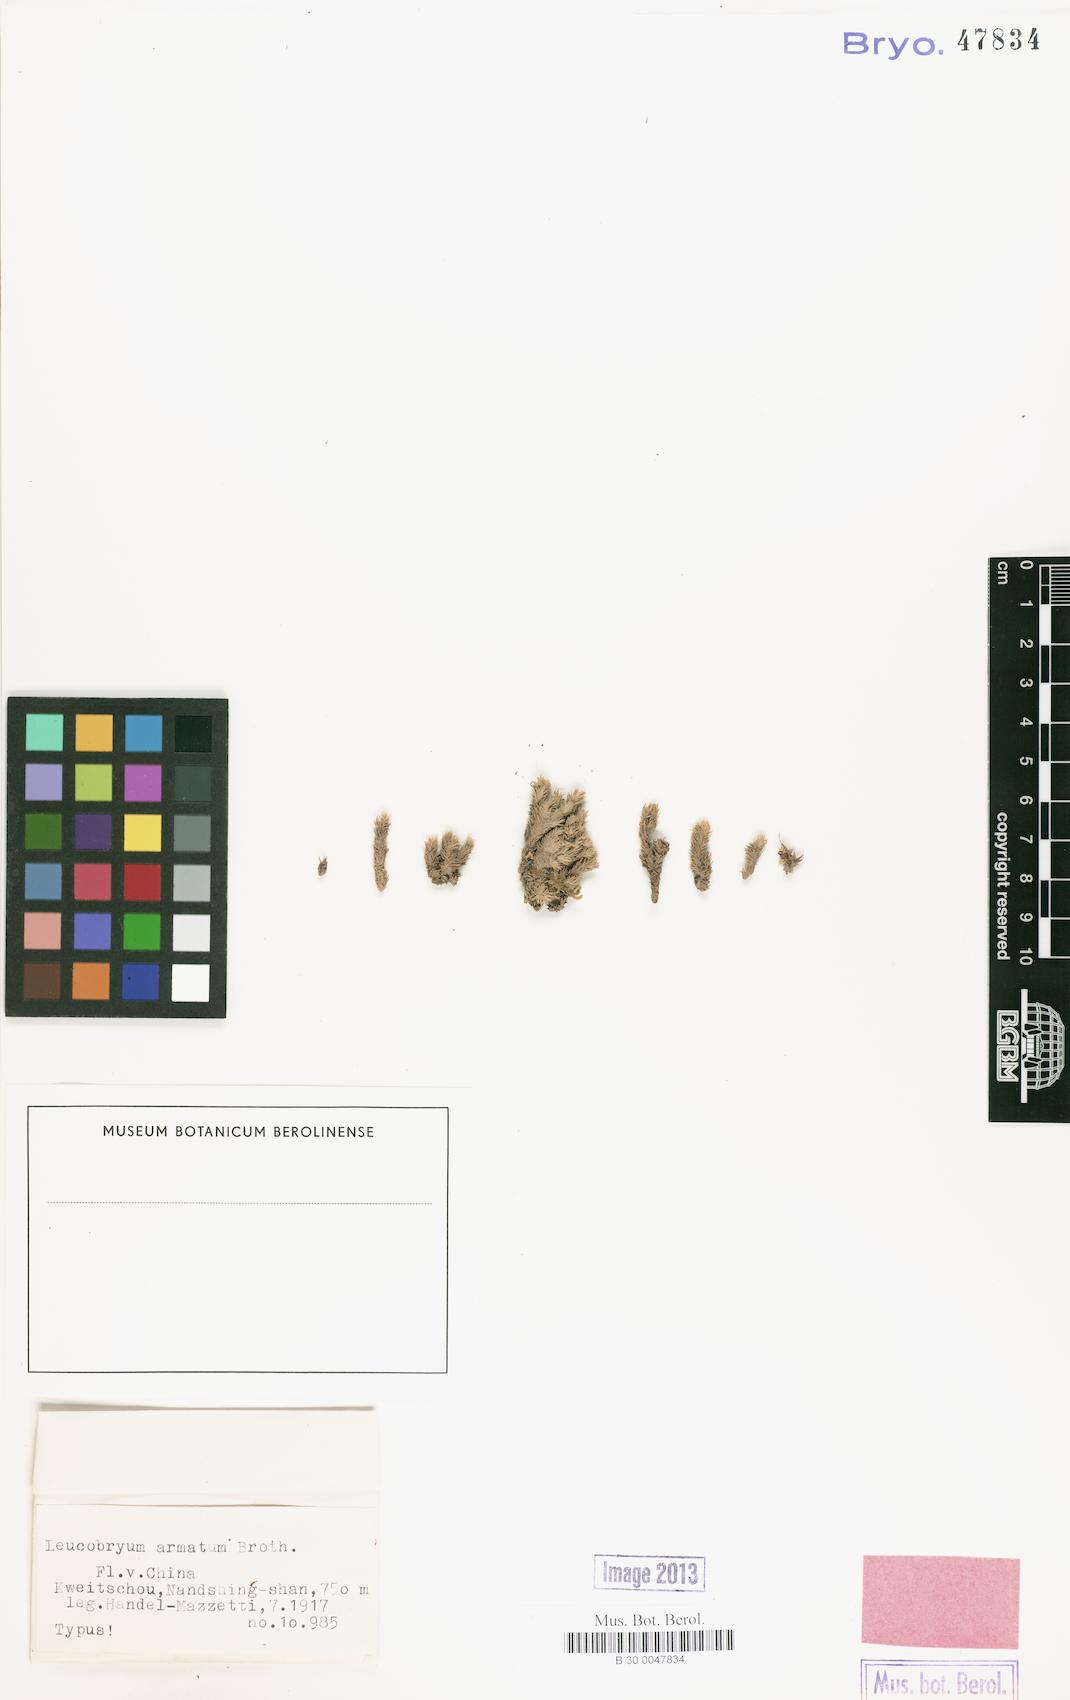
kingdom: Plantae
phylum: Bryophyta
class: Bryopsida
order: Dicranales
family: Leucobryaceae
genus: Leucobryum
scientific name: Leucobryum scaberulum
